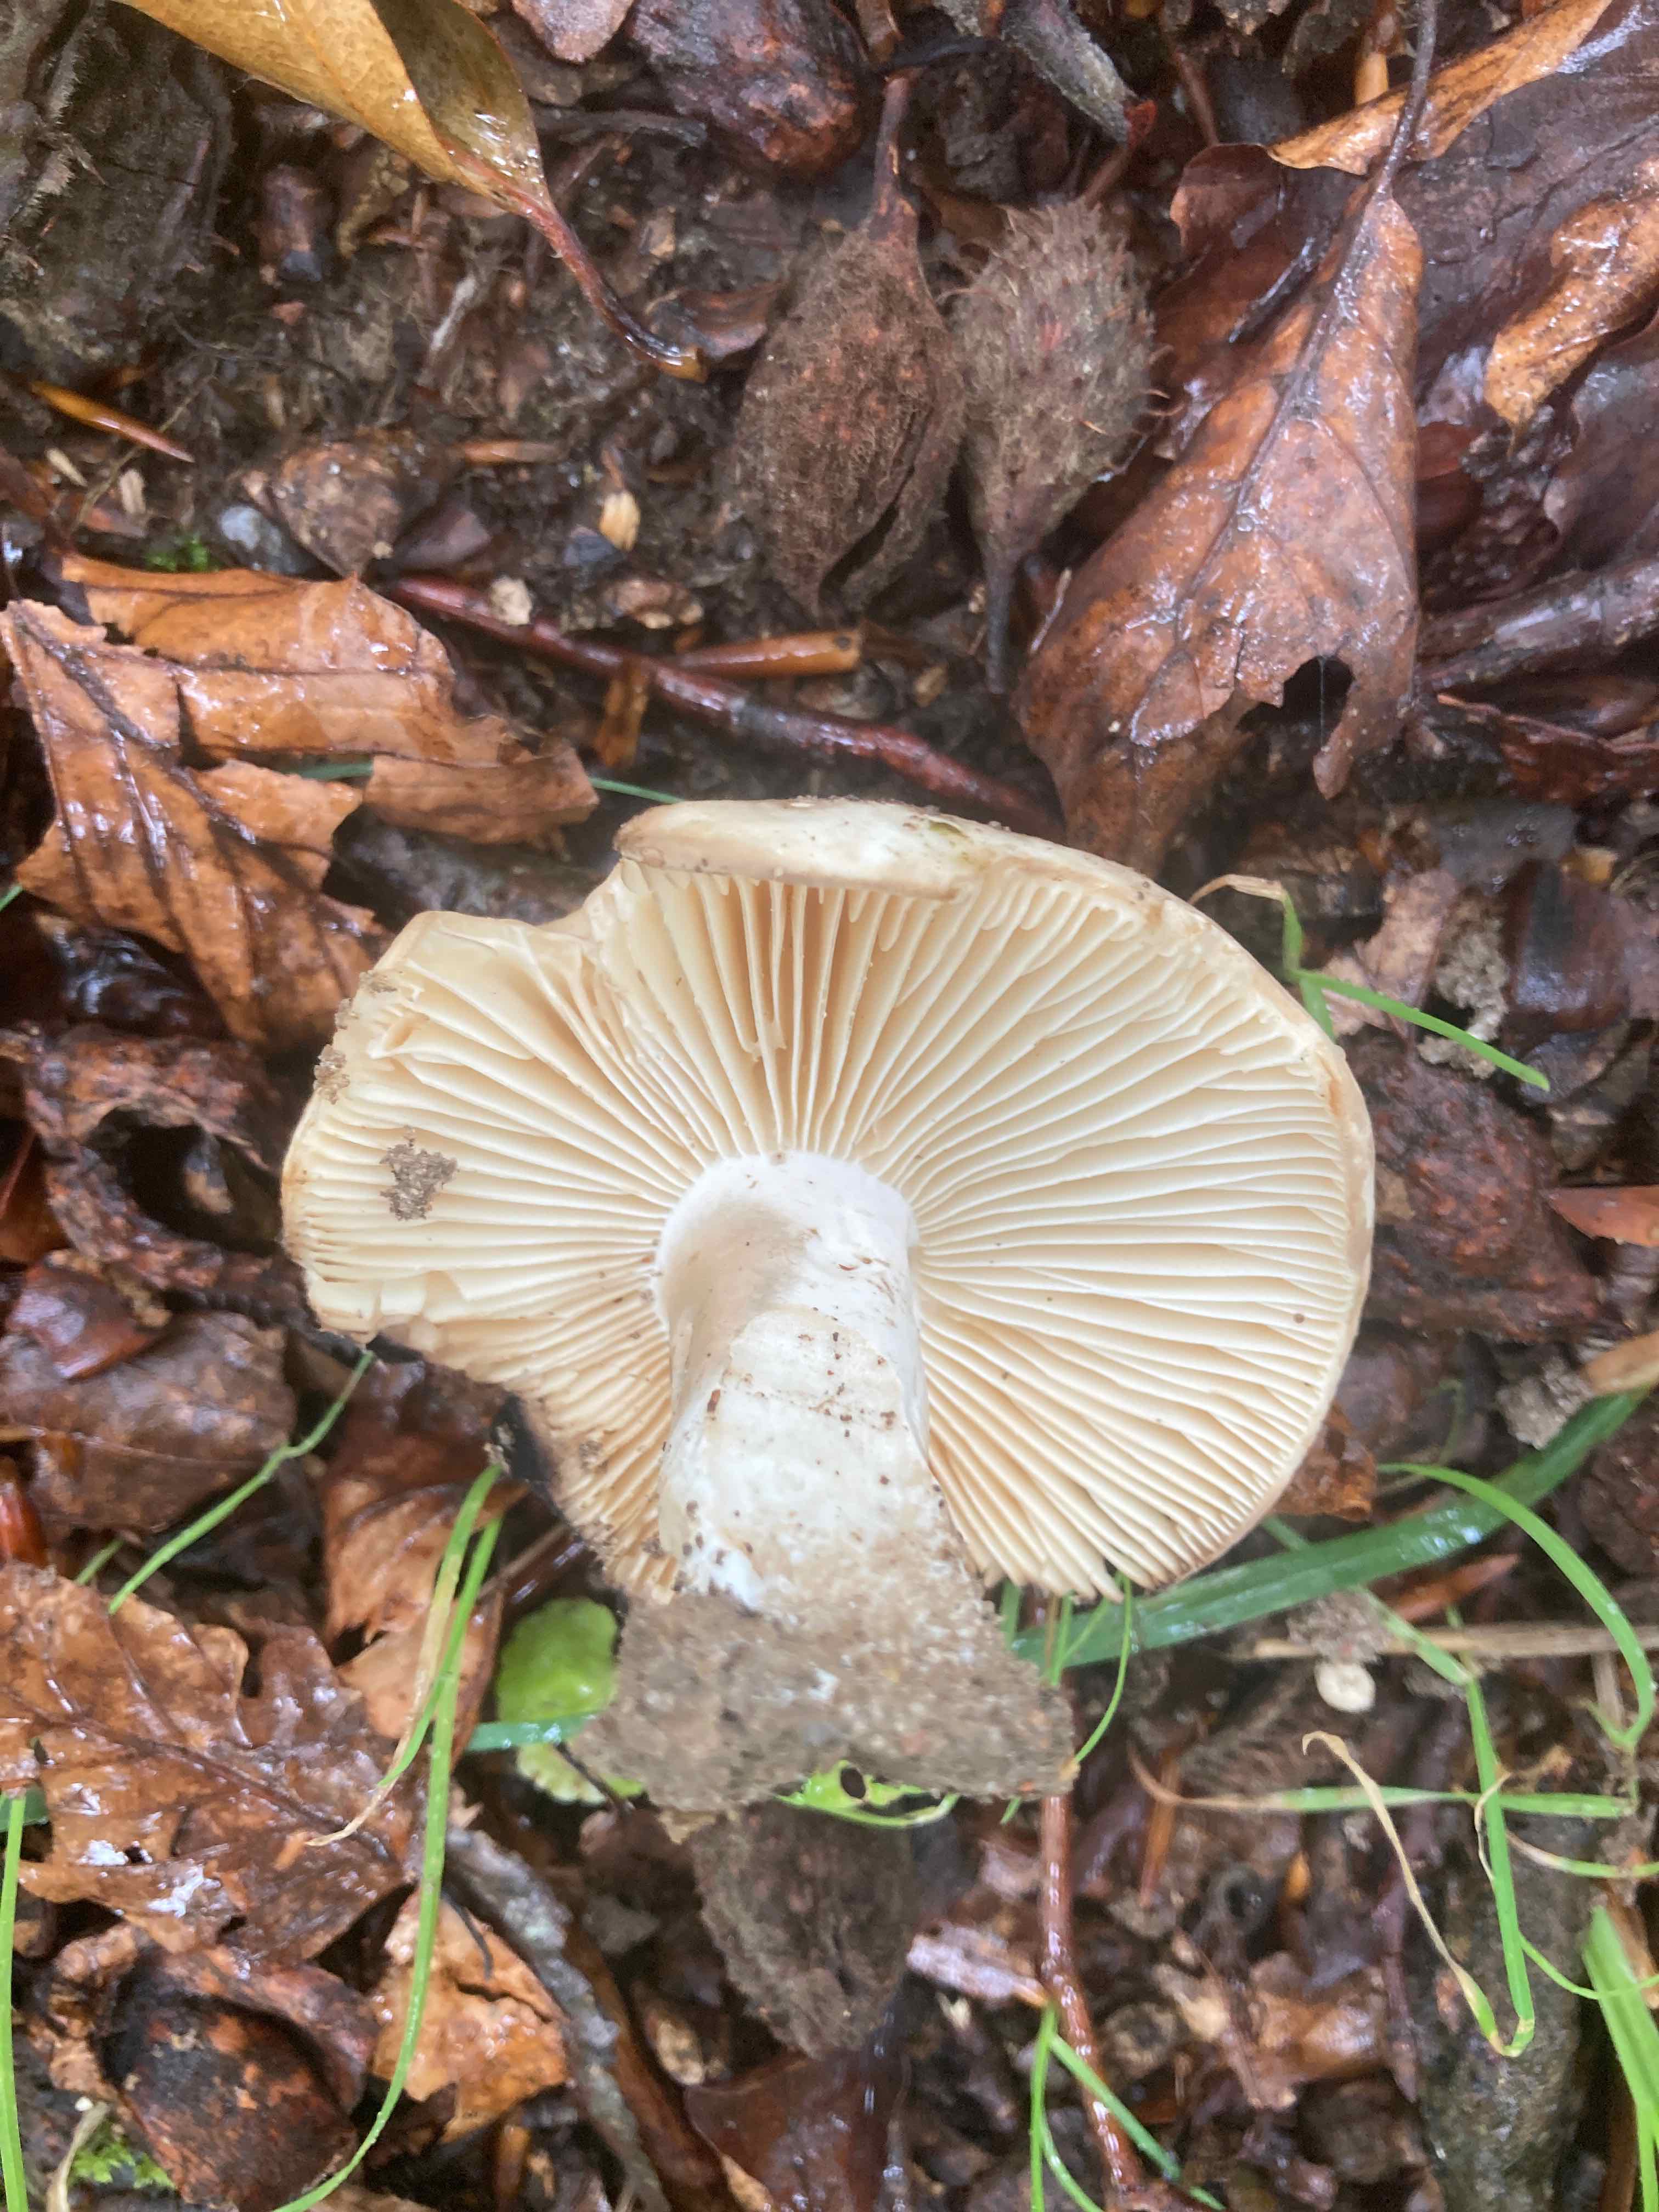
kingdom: Fungi
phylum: Basidiomycota
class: Agaricomycetes
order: Russulales
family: Russulaceae
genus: Russula
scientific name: Russula adusta
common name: sværtende skørhat
